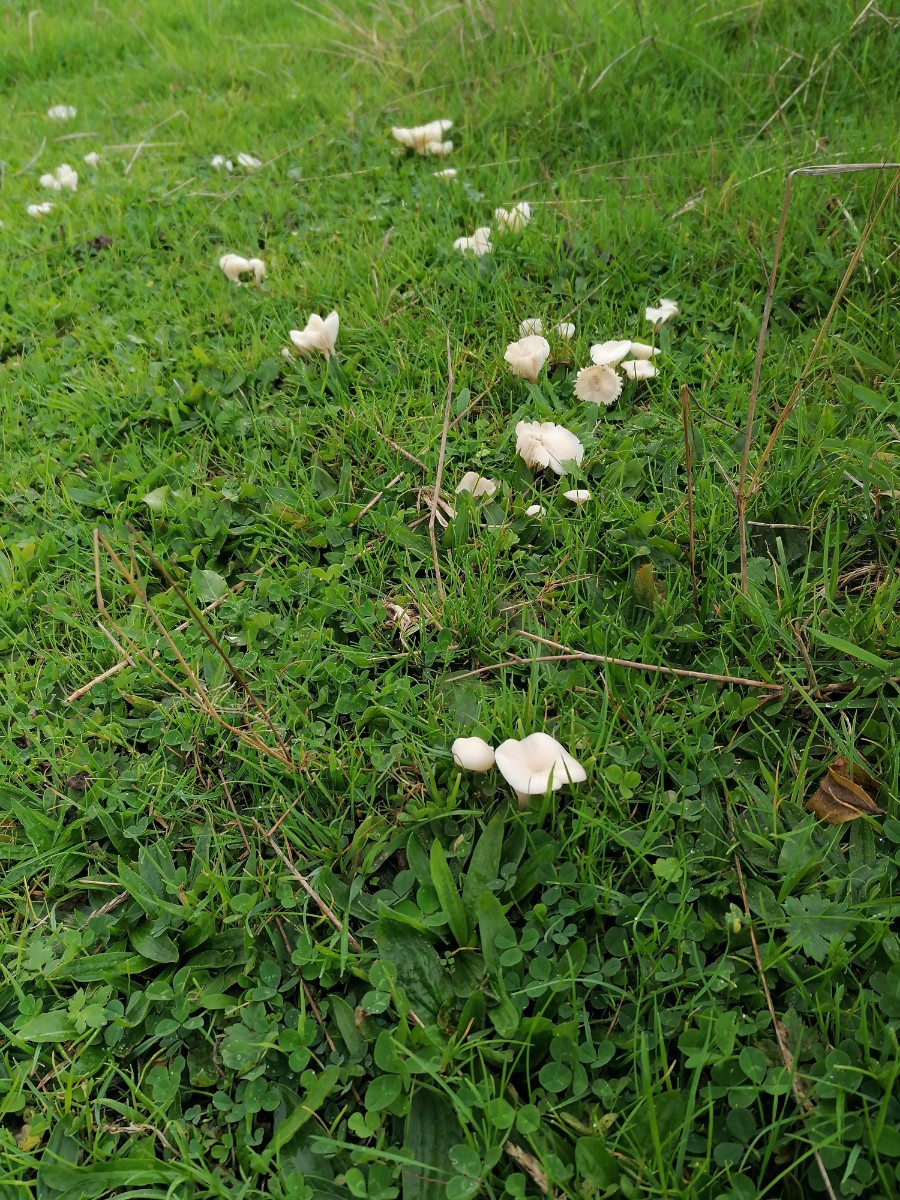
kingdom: Fungi
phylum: Basidiomycota
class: Agaricomycetes
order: Agaricales
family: Hygrophoraceae
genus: Cuphophyllus
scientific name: Cuphophyllus
